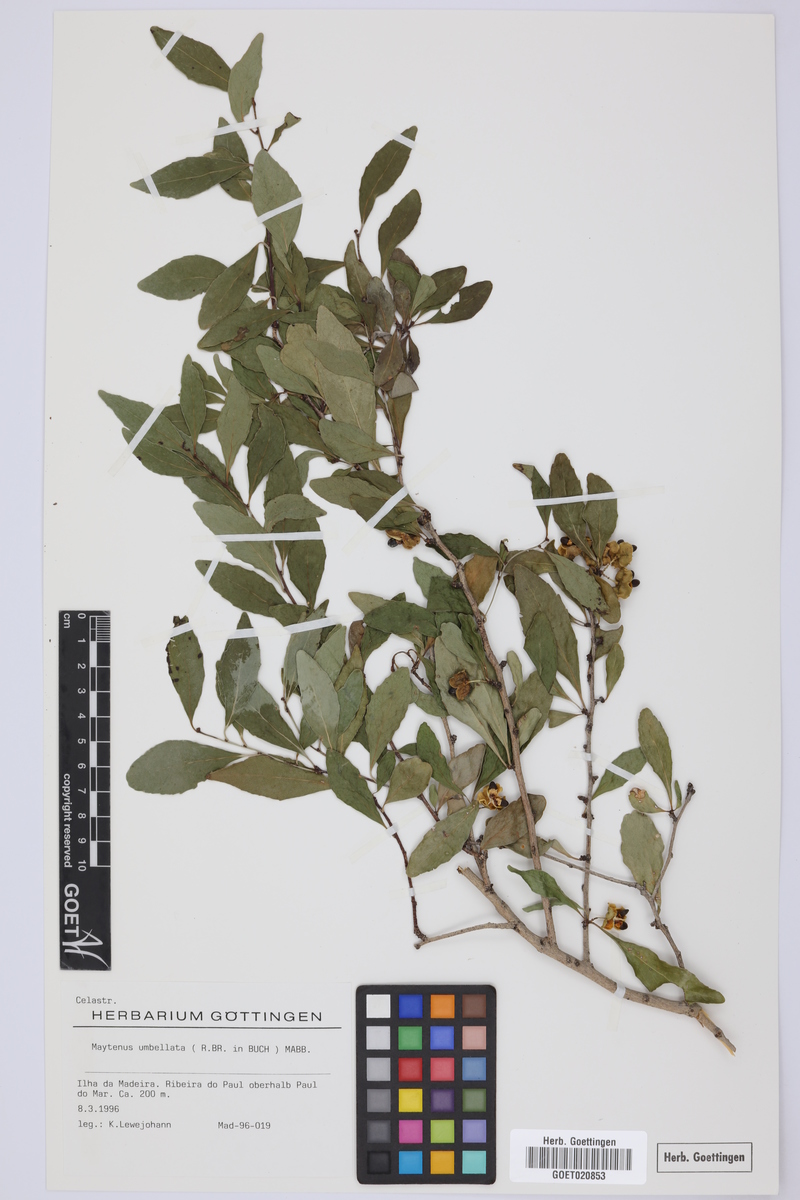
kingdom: Plantae
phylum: Tracheophyta
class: Magnoliopsida
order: Celastrales
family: Celastraceae
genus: Gymnosporia
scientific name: Gymnosporia dryandri
